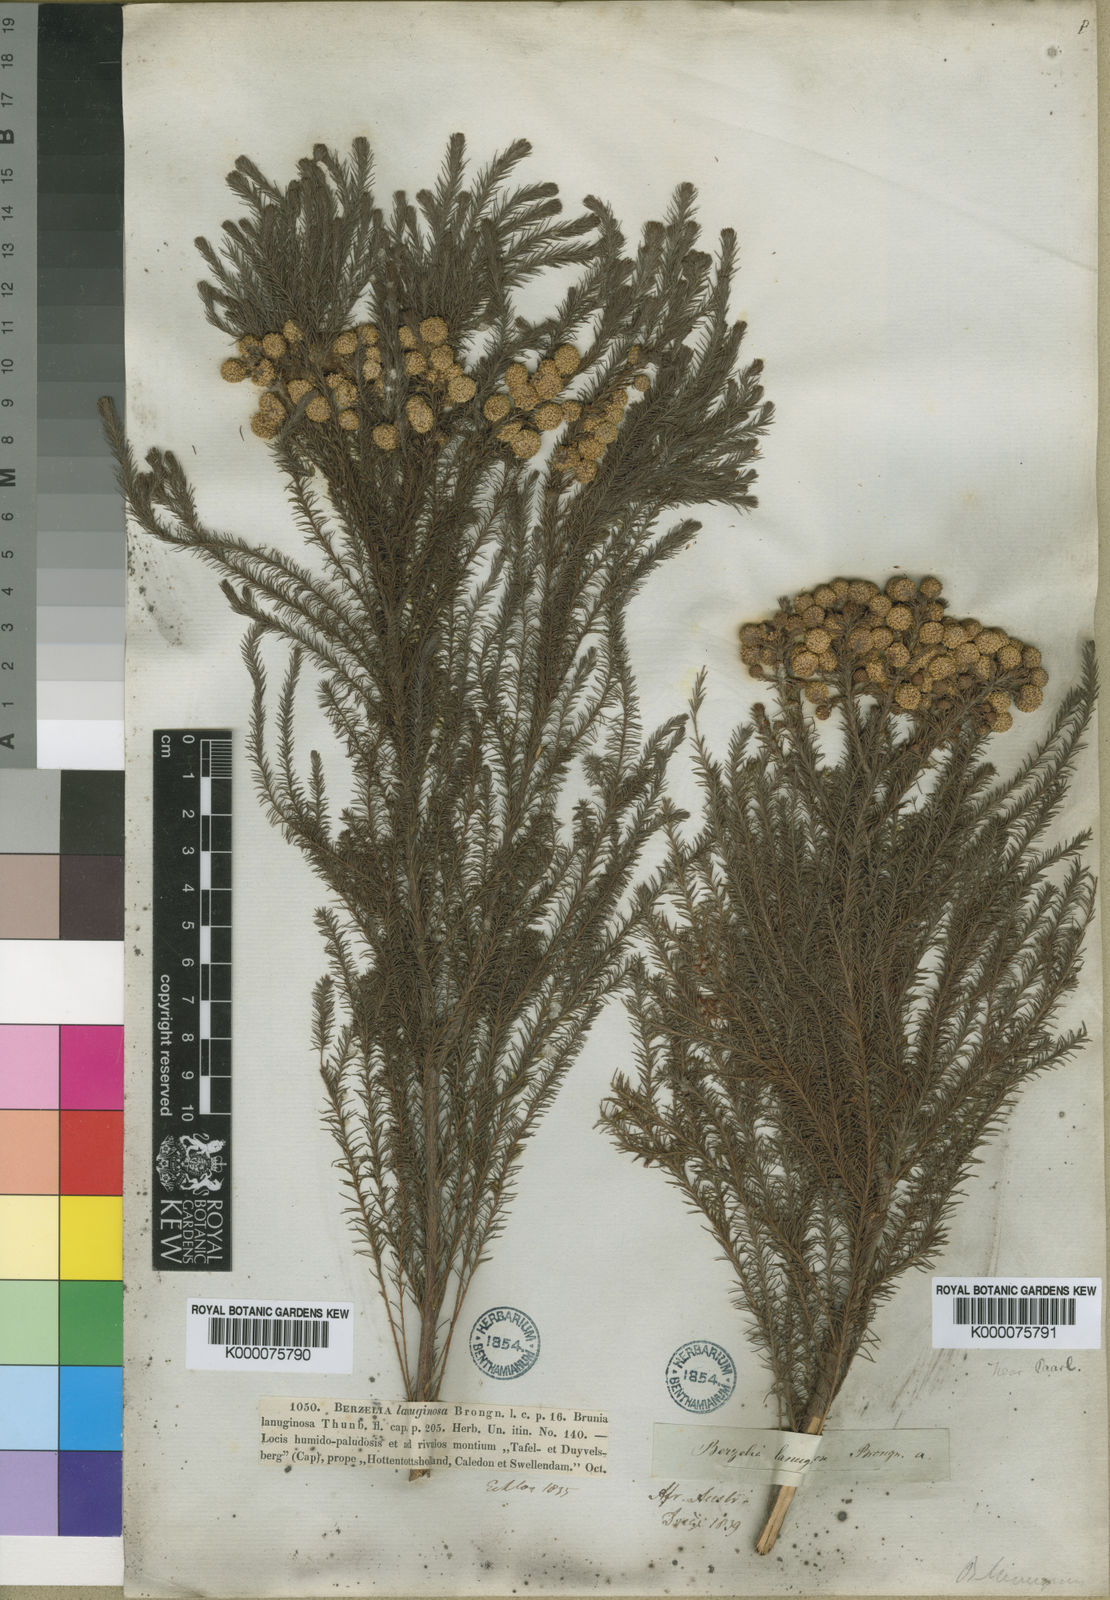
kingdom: Plantae
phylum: Tracheophyta
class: Magnoliopsida
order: Bruniales
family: Bruniaceae
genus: Berzelia
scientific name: Berzelia lanuginosa
